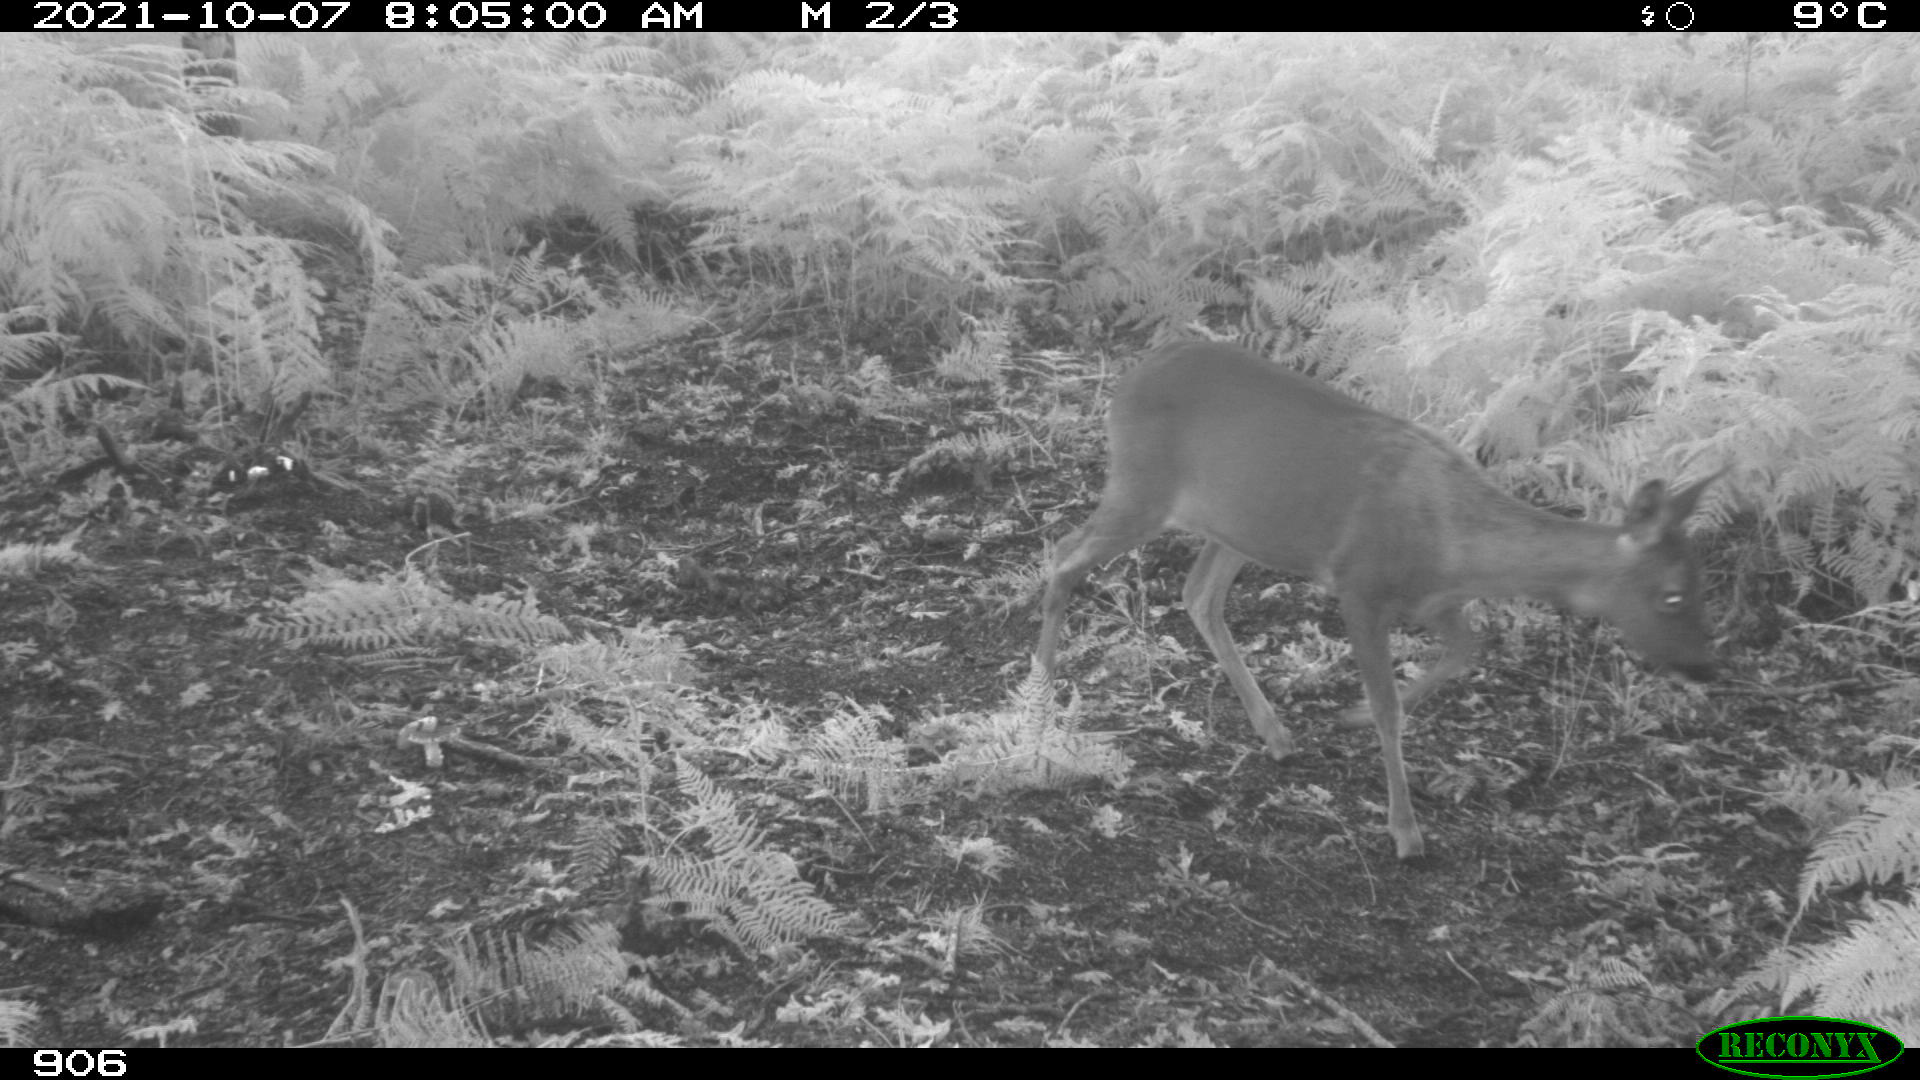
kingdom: Animalia
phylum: Chordata
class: Mammalia
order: Artiodactyla
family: Cervidae
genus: Capreolus
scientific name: Capreolus capreolus
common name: Western roe deer
